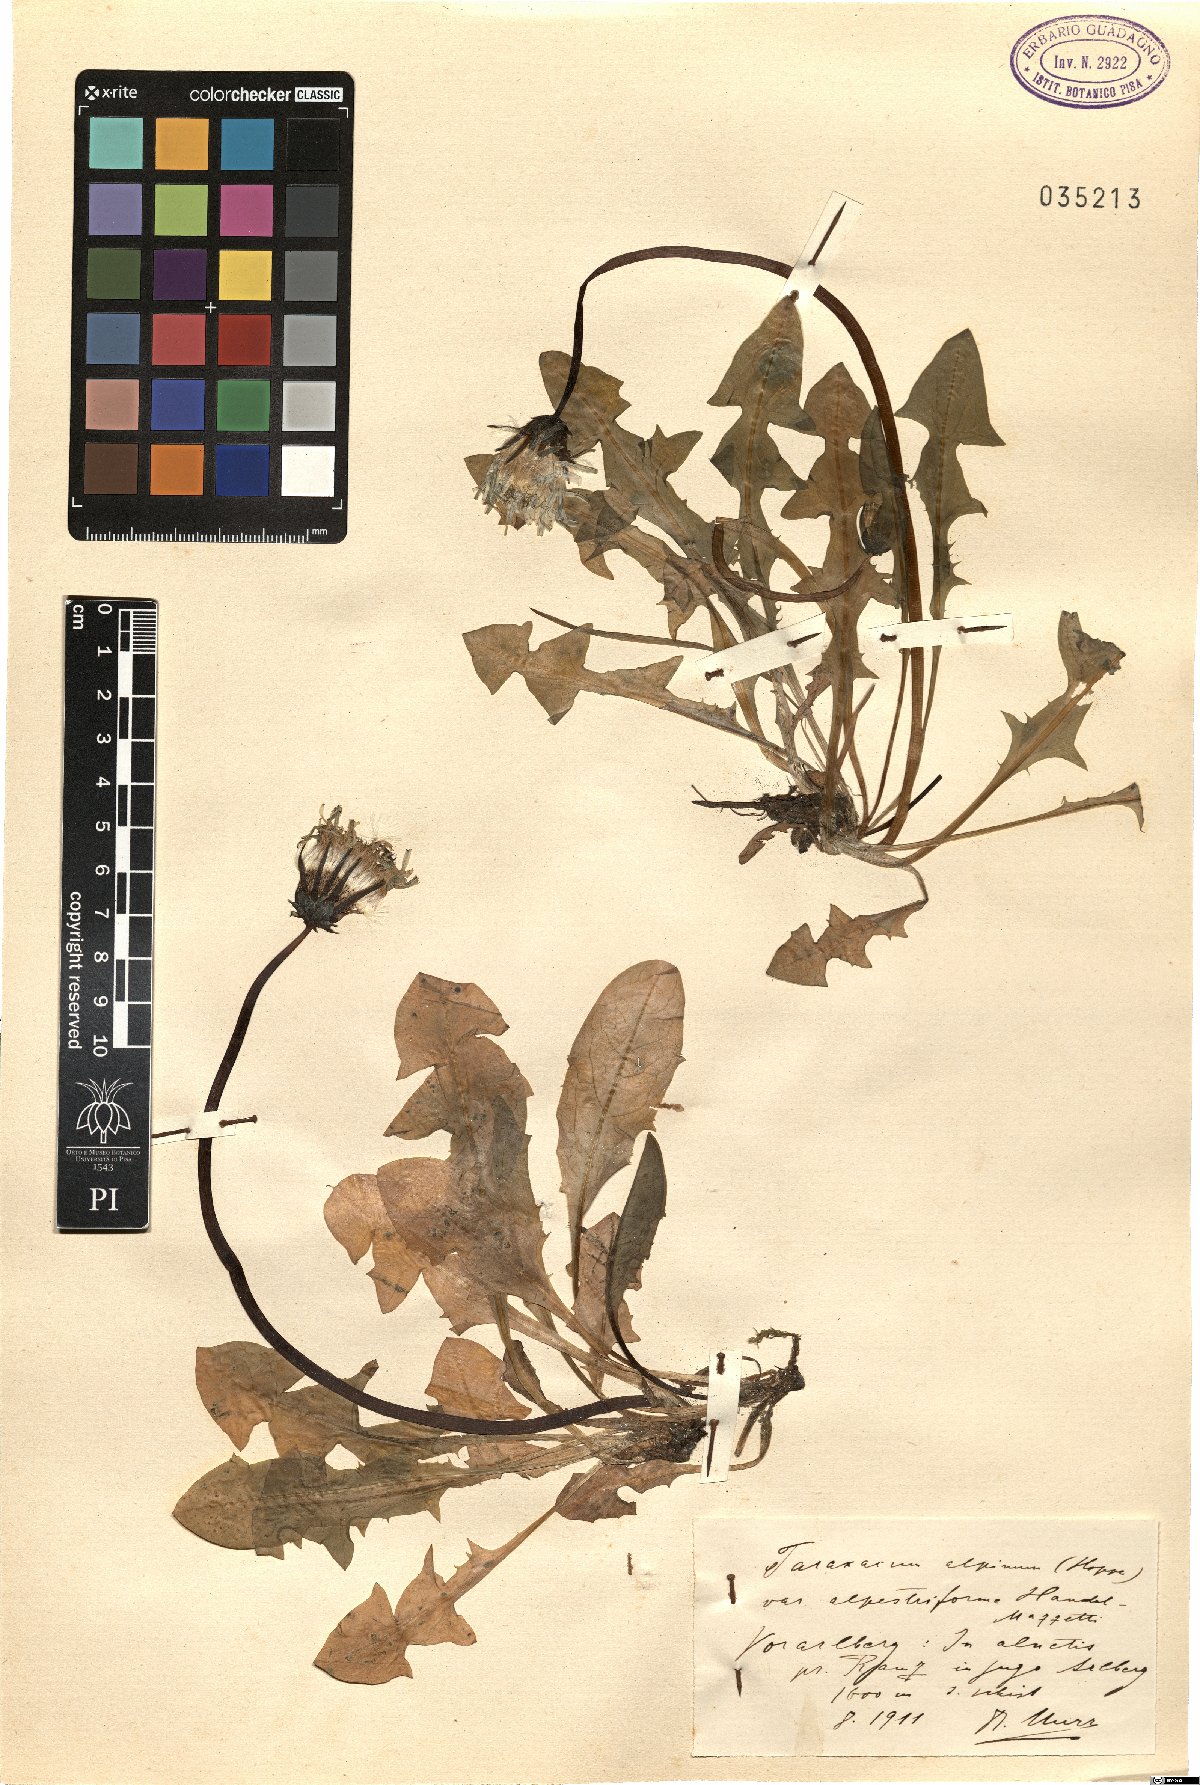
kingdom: Plantae
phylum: Tracheophyta
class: Magnoliopsida
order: Asterales
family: Asteraceae
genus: Taraxacum
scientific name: Taraxacum alpinum
